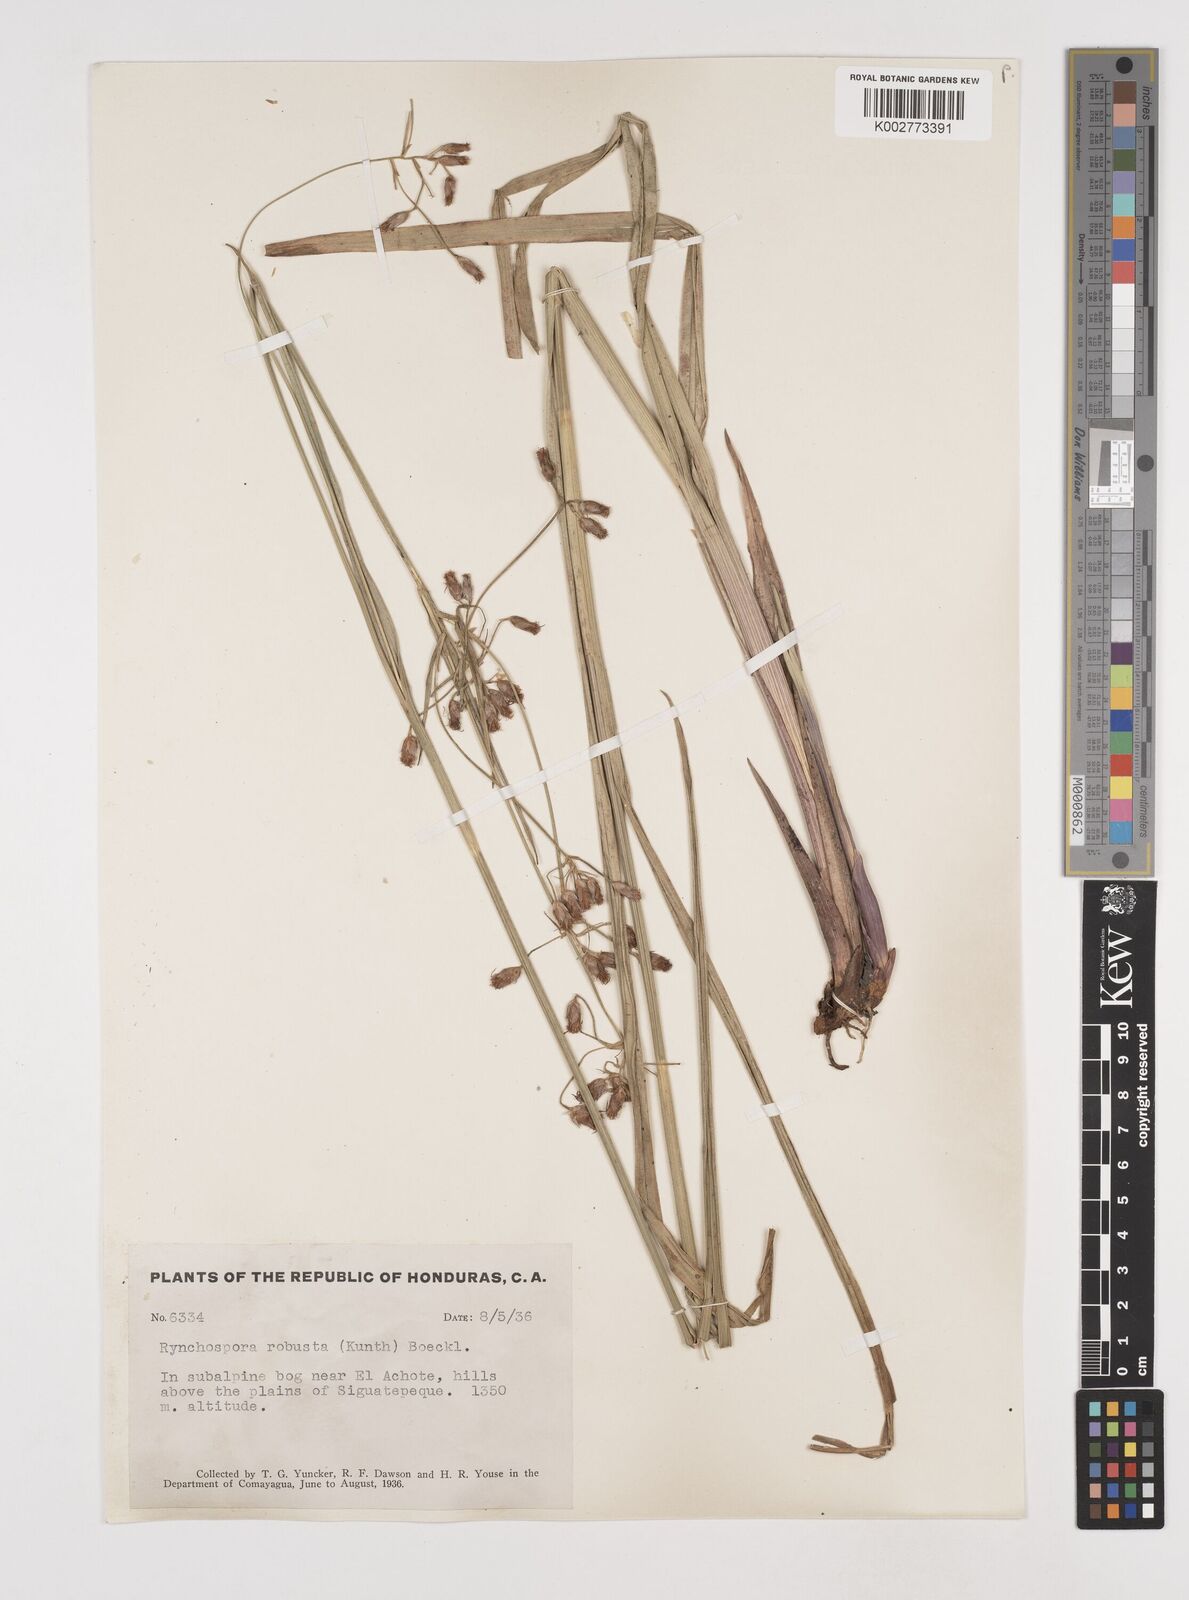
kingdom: Plantae
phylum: Tracheophyta
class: Liliopsida
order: Poales
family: Cyperaceae
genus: Rhynchospora
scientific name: Rhynchospora robusta
